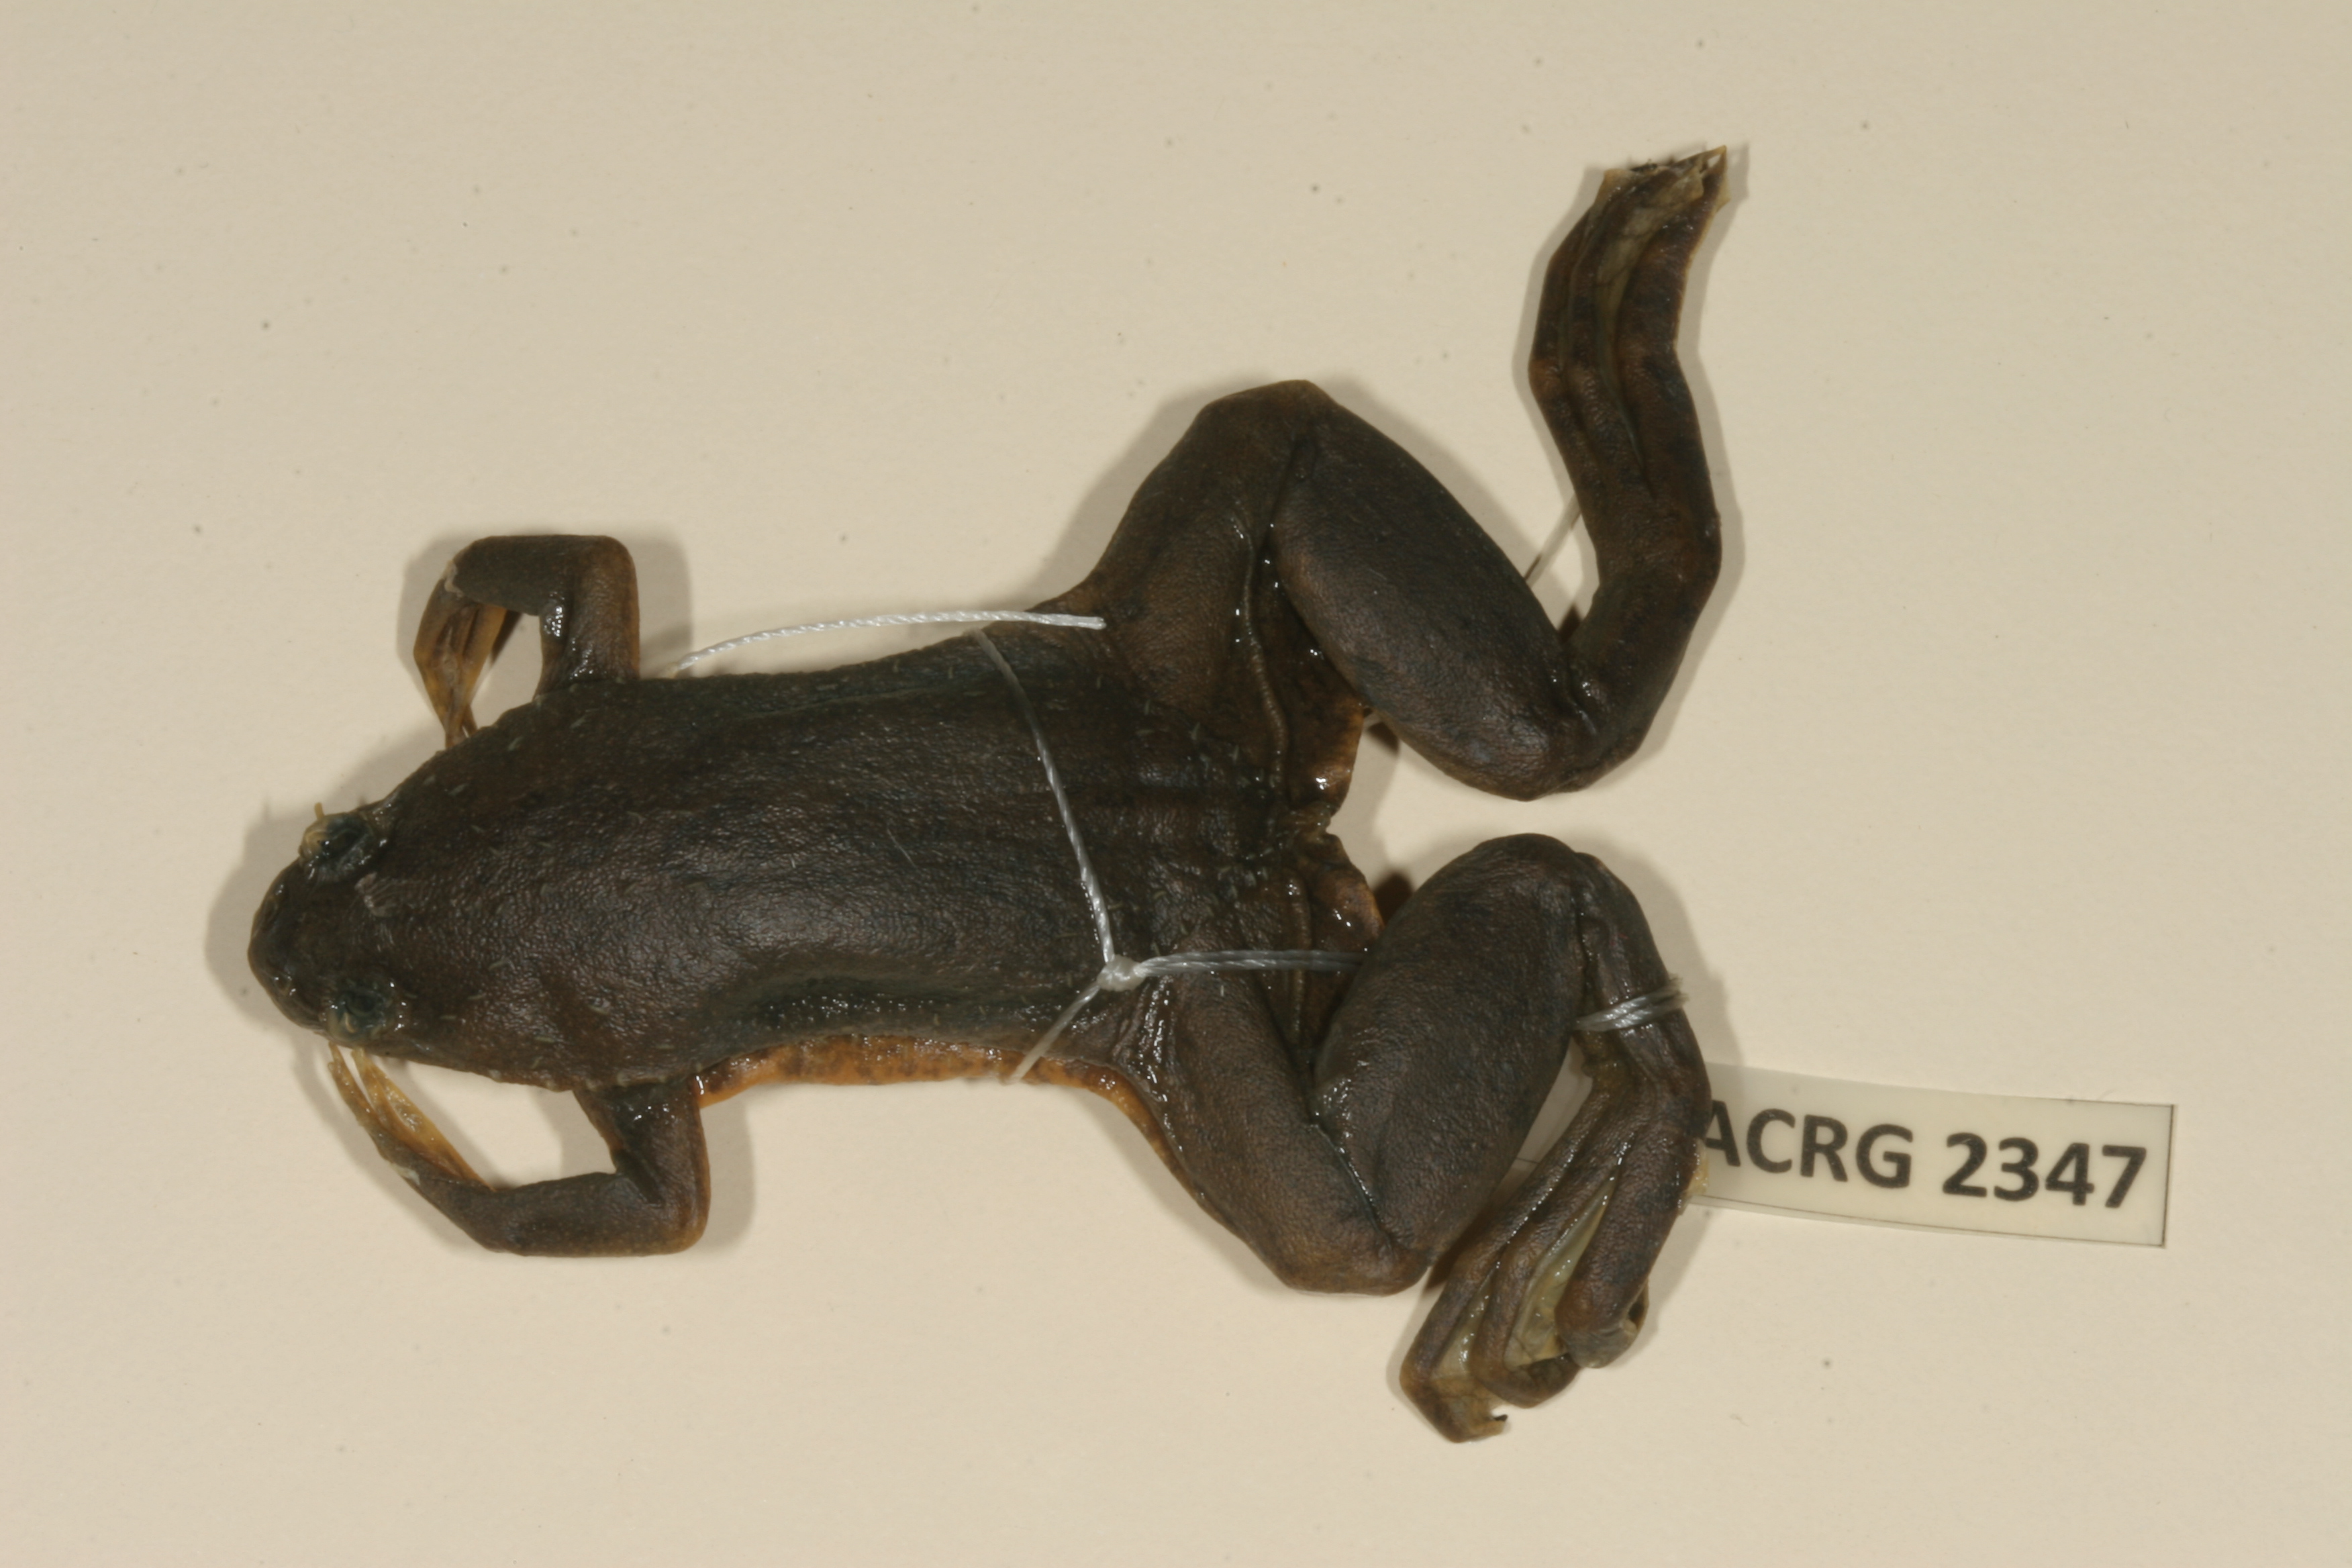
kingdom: Animalia
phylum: Chordata
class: Amphibia
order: Anura
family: Pipidae
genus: Xenopus
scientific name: Xenopus muelleri
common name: Muller's clawed frog
